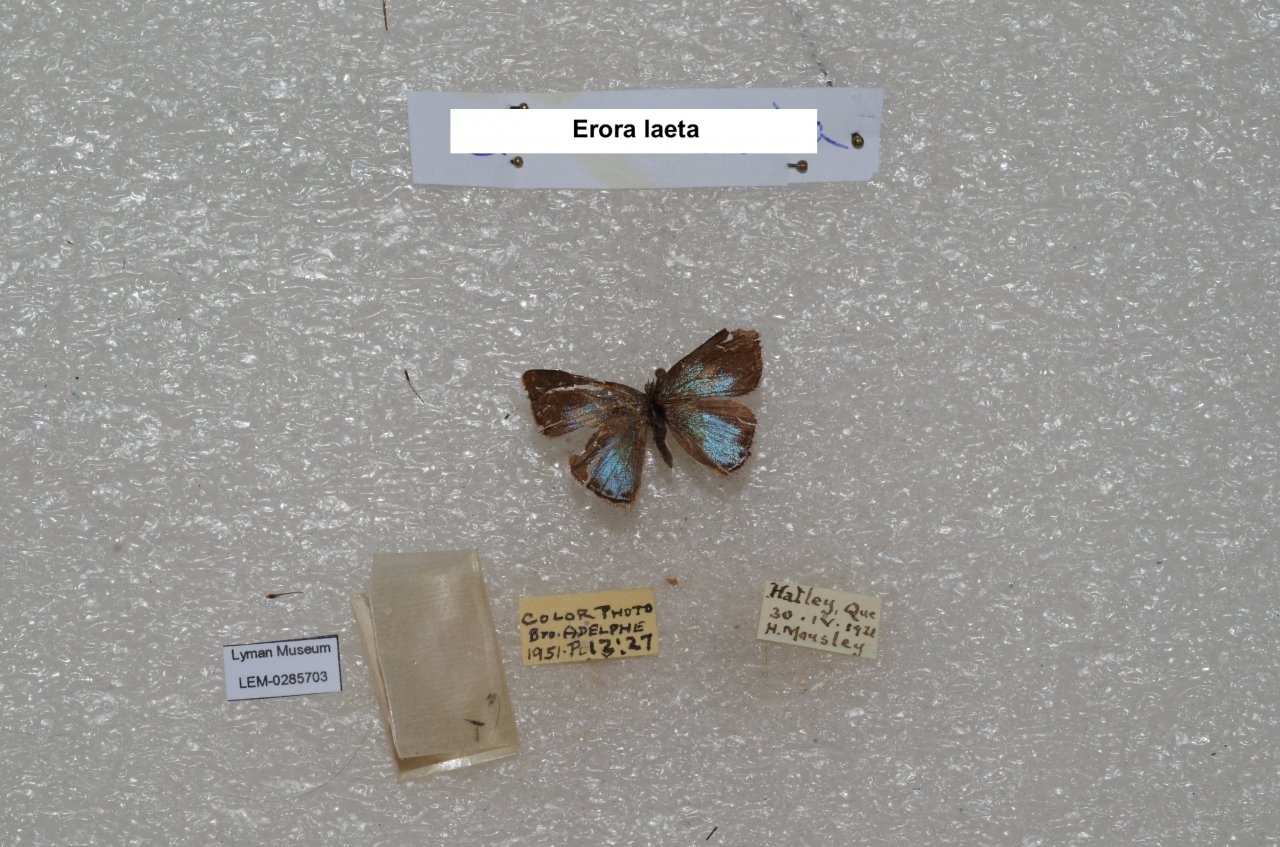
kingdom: Animalia
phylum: Arthropoda
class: Insecta
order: Lepidoptera
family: Lycaenidae
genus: Erora
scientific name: Erora laeta
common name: Early Hairstreak
